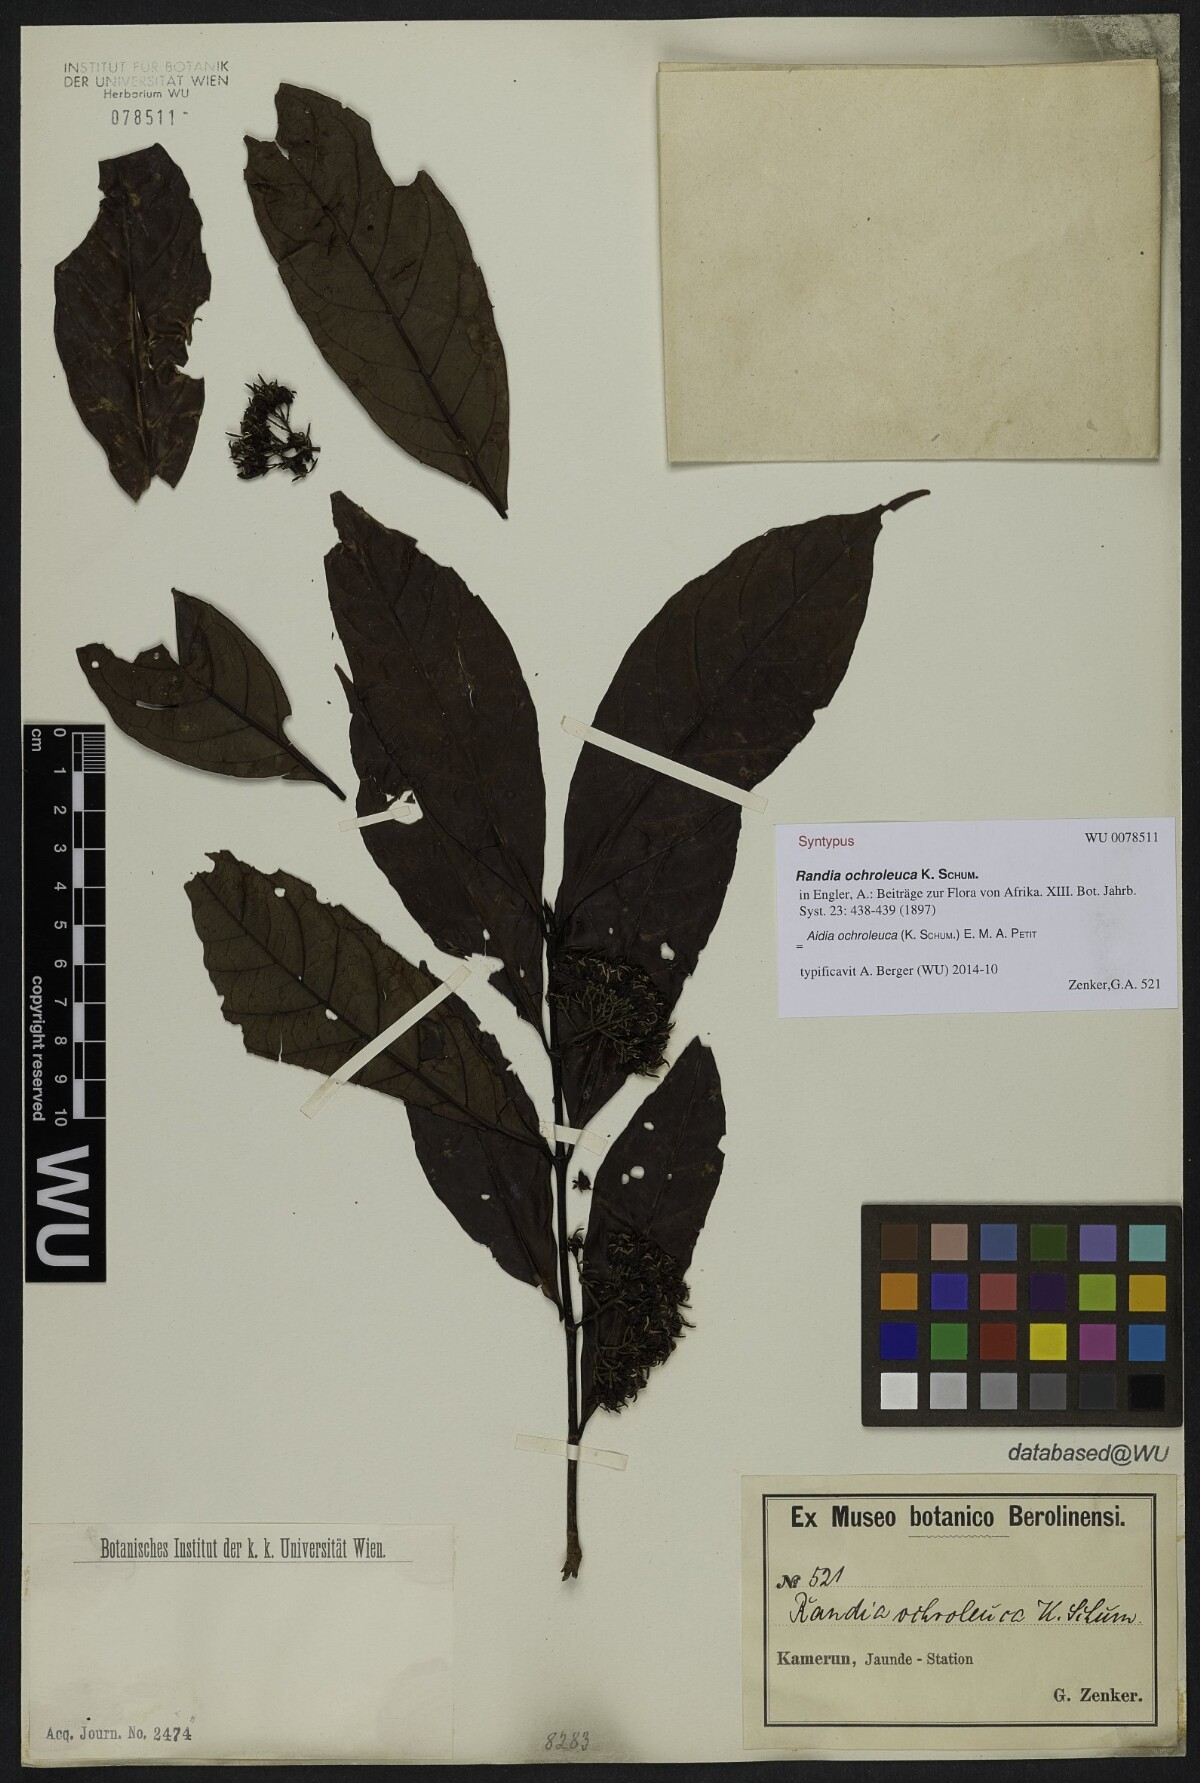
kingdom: Plantae
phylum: Tracheophyta
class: Magnoliopsida
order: Gentianales
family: Rubiaceae
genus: Aidia
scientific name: Aidia ochroleuca
